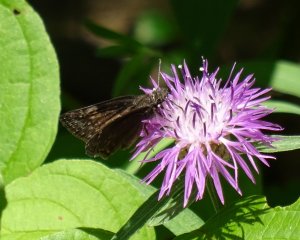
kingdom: Animalia
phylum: Arthropoda
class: Insecta
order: Lepidoptera
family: Hesperiidae
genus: Gesta
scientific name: Gesta
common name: Columbine Duskywing
